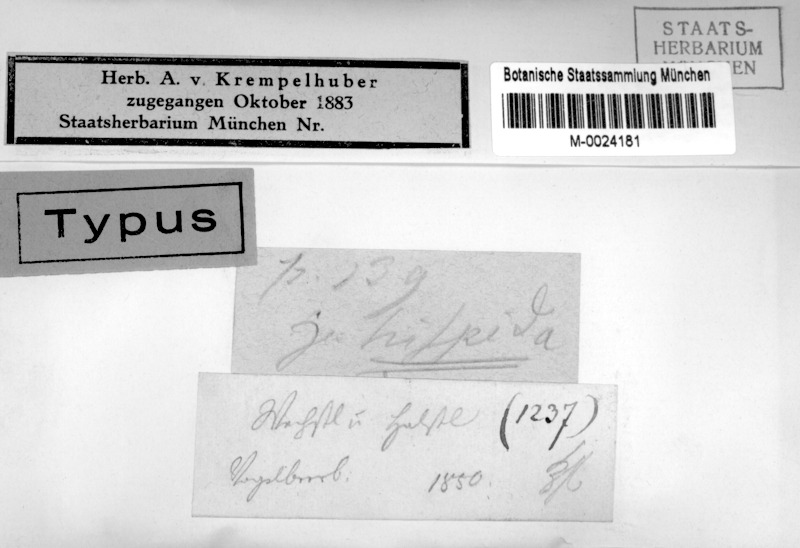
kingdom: Fungi
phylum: Ascomycota
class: Lecanoromycetes
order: Caliciales
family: Physciaceae
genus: Physcia
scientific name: Physcia stellaris
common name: Star rosette lichen
